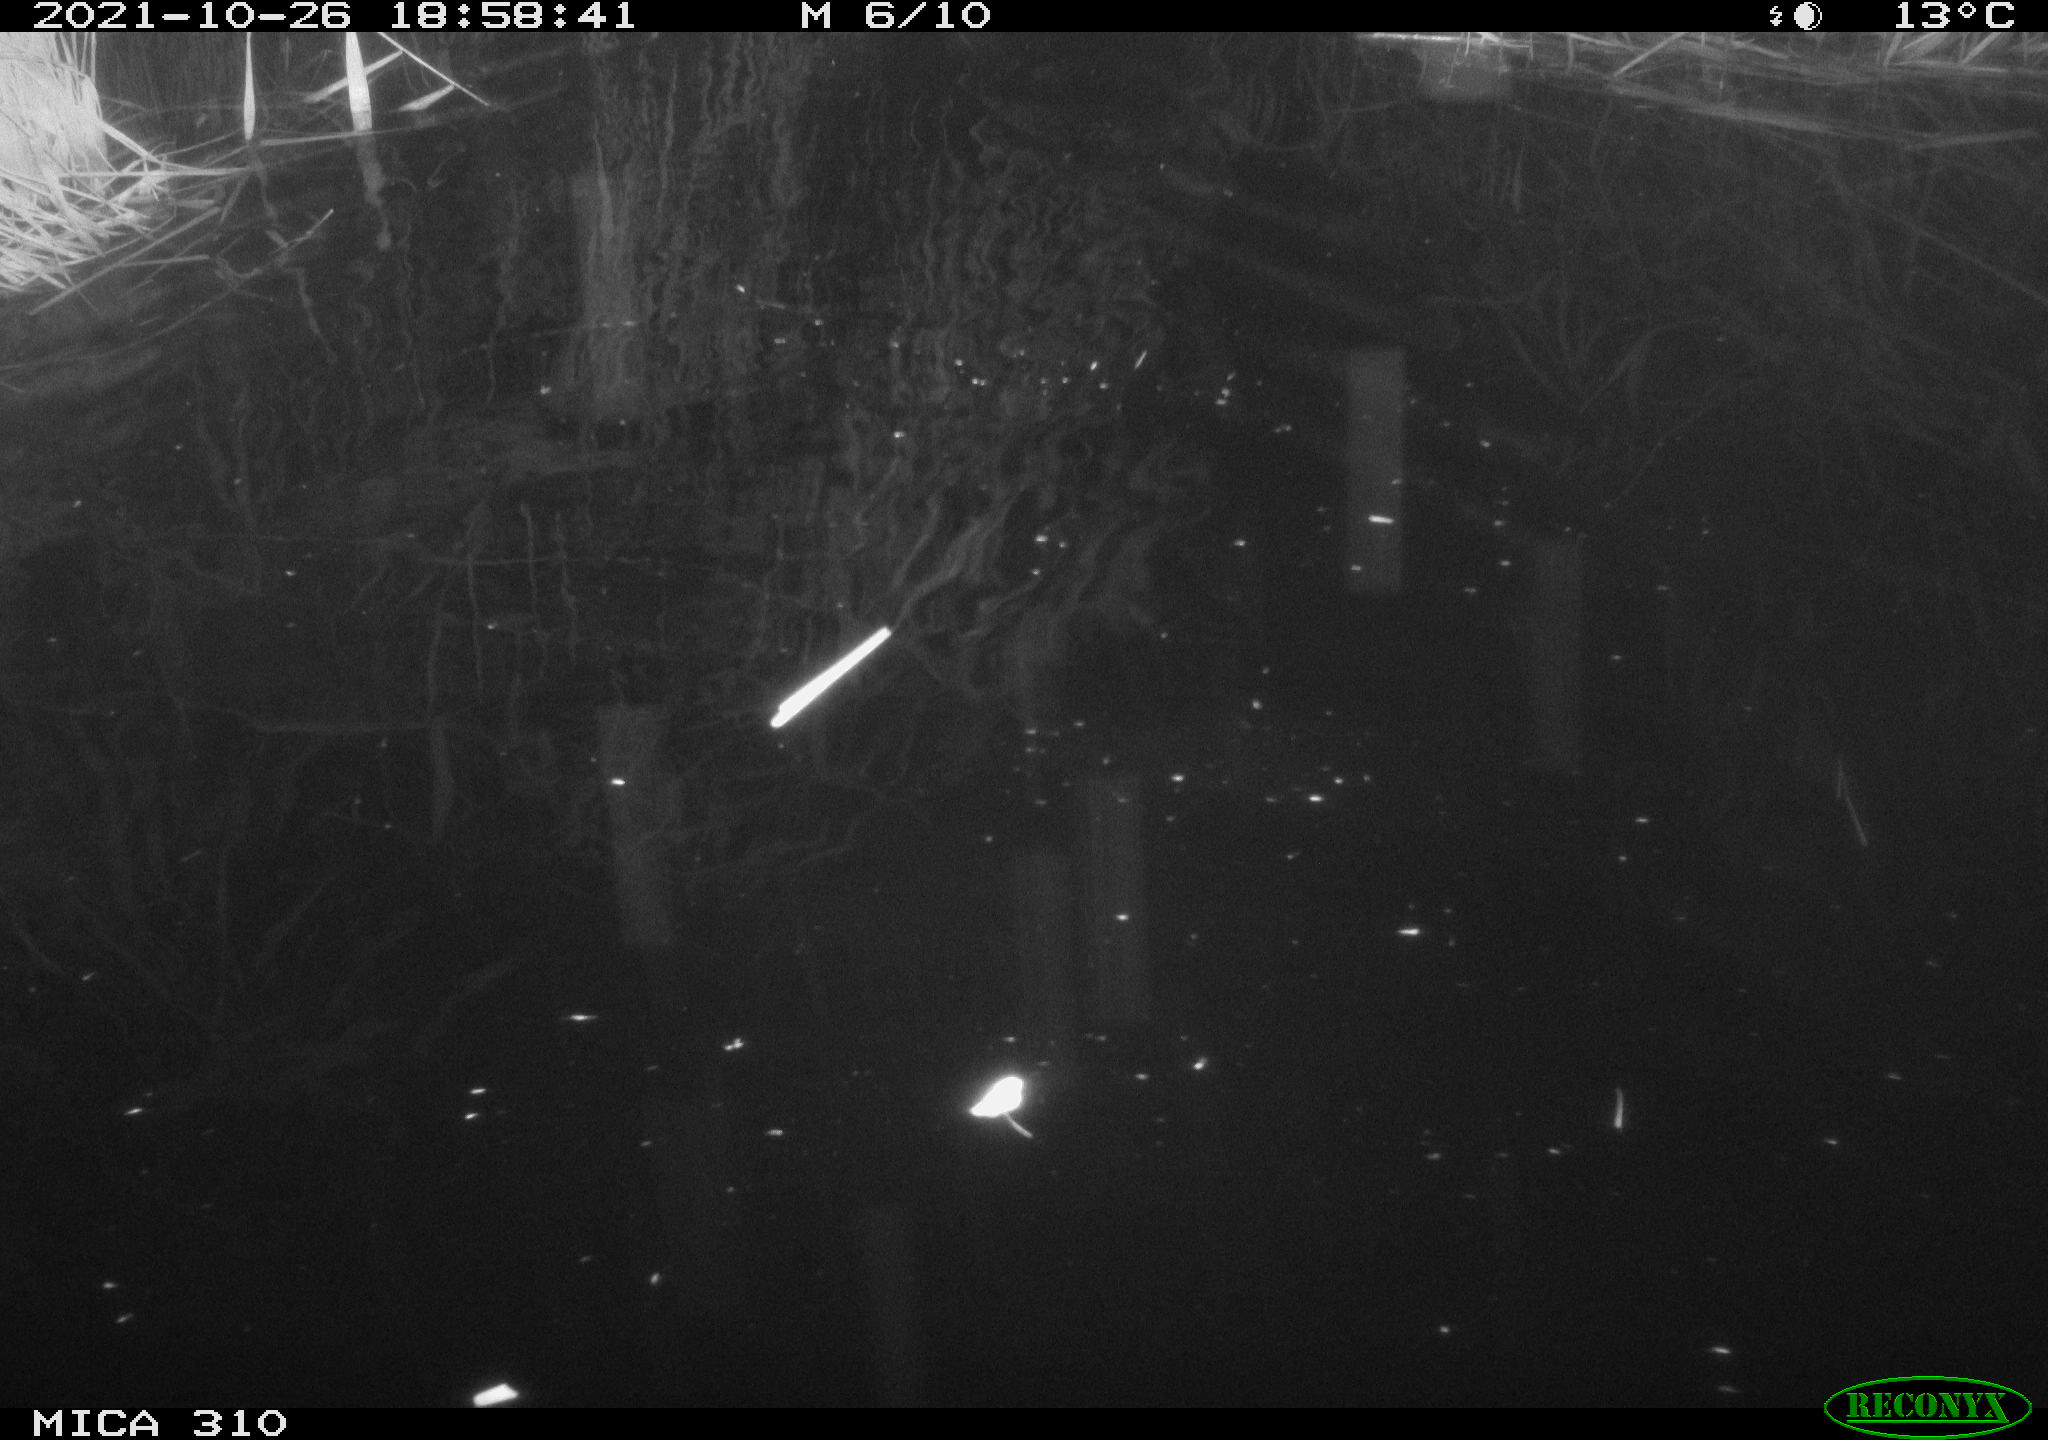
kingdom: Animalia
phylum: Chordata
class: Mammalia
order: Rodentia
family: Muridae
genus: Rattus
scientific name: Rattus norvegicus
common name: Brown rat
